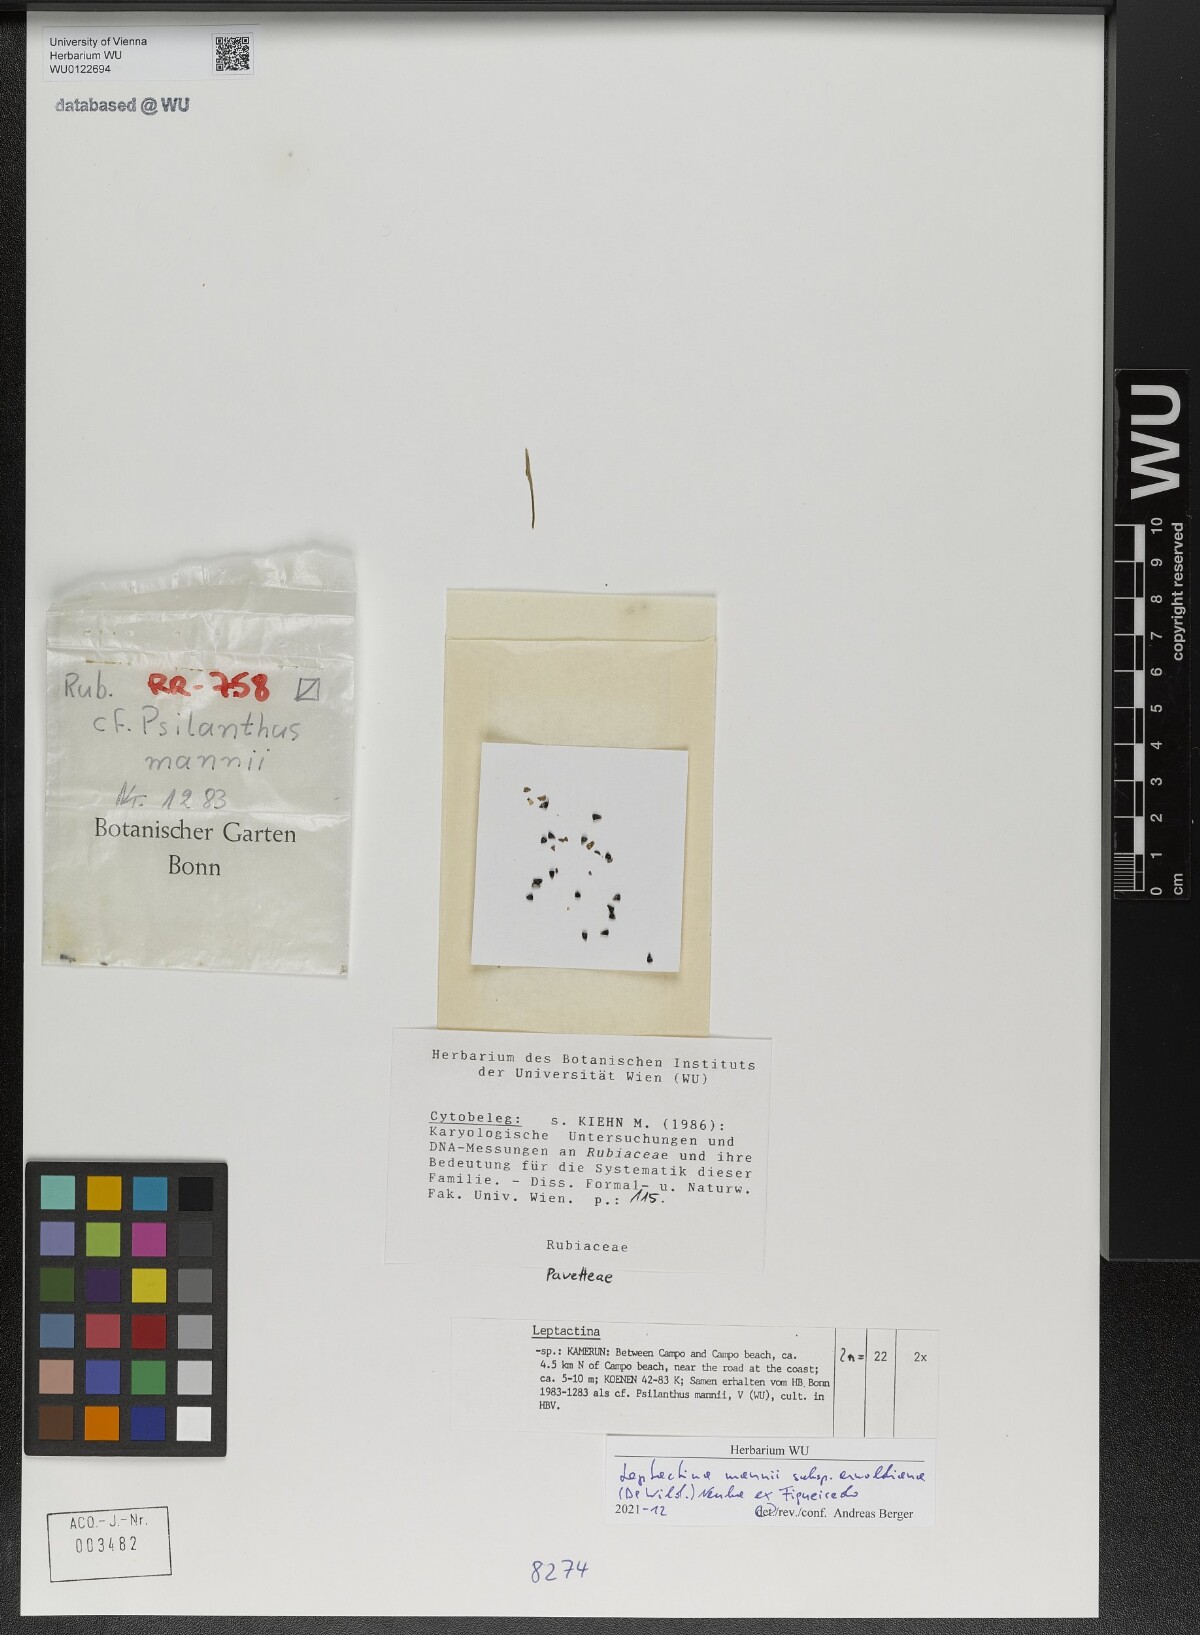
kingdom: Plantae
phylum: Tracheophyta
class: Magnoliopsida
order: Gentianales
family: Rubiaceae
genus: Leptactina
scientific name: Leptactina mannii
